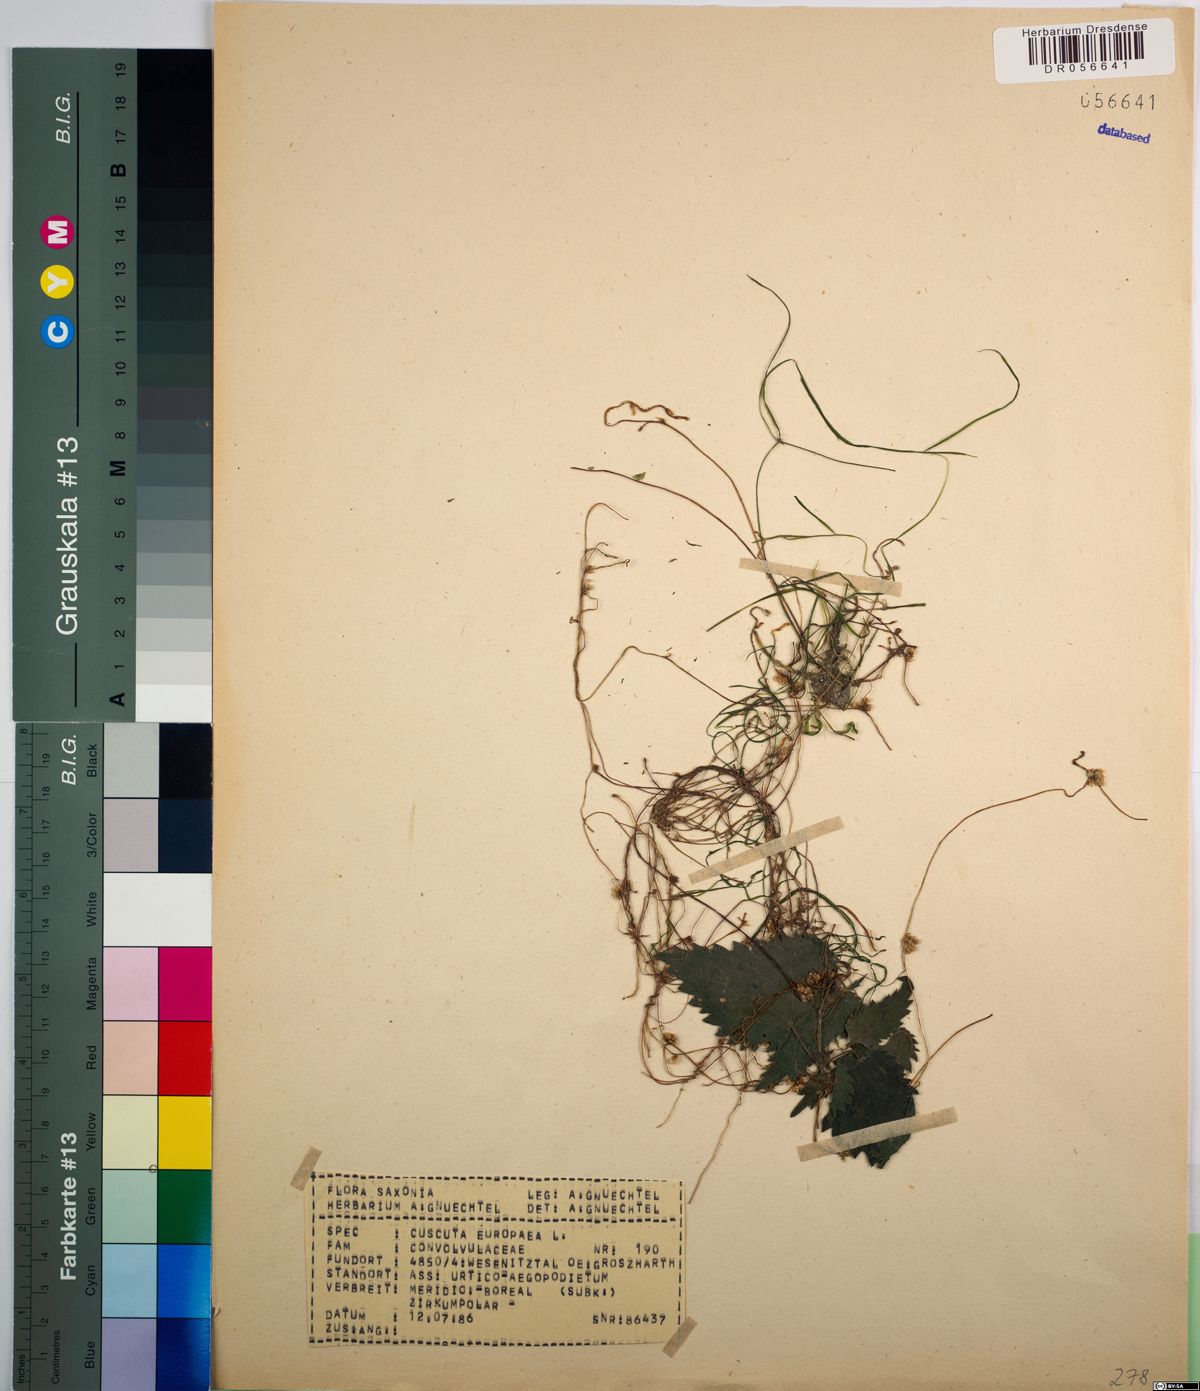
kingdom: Plantae
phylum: Tracheophyta
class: Magnoliopsida
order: Solanales
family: Convolvulaceae
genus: Cuscuta
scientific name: Cuscuta europaea
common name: Greater dodder
